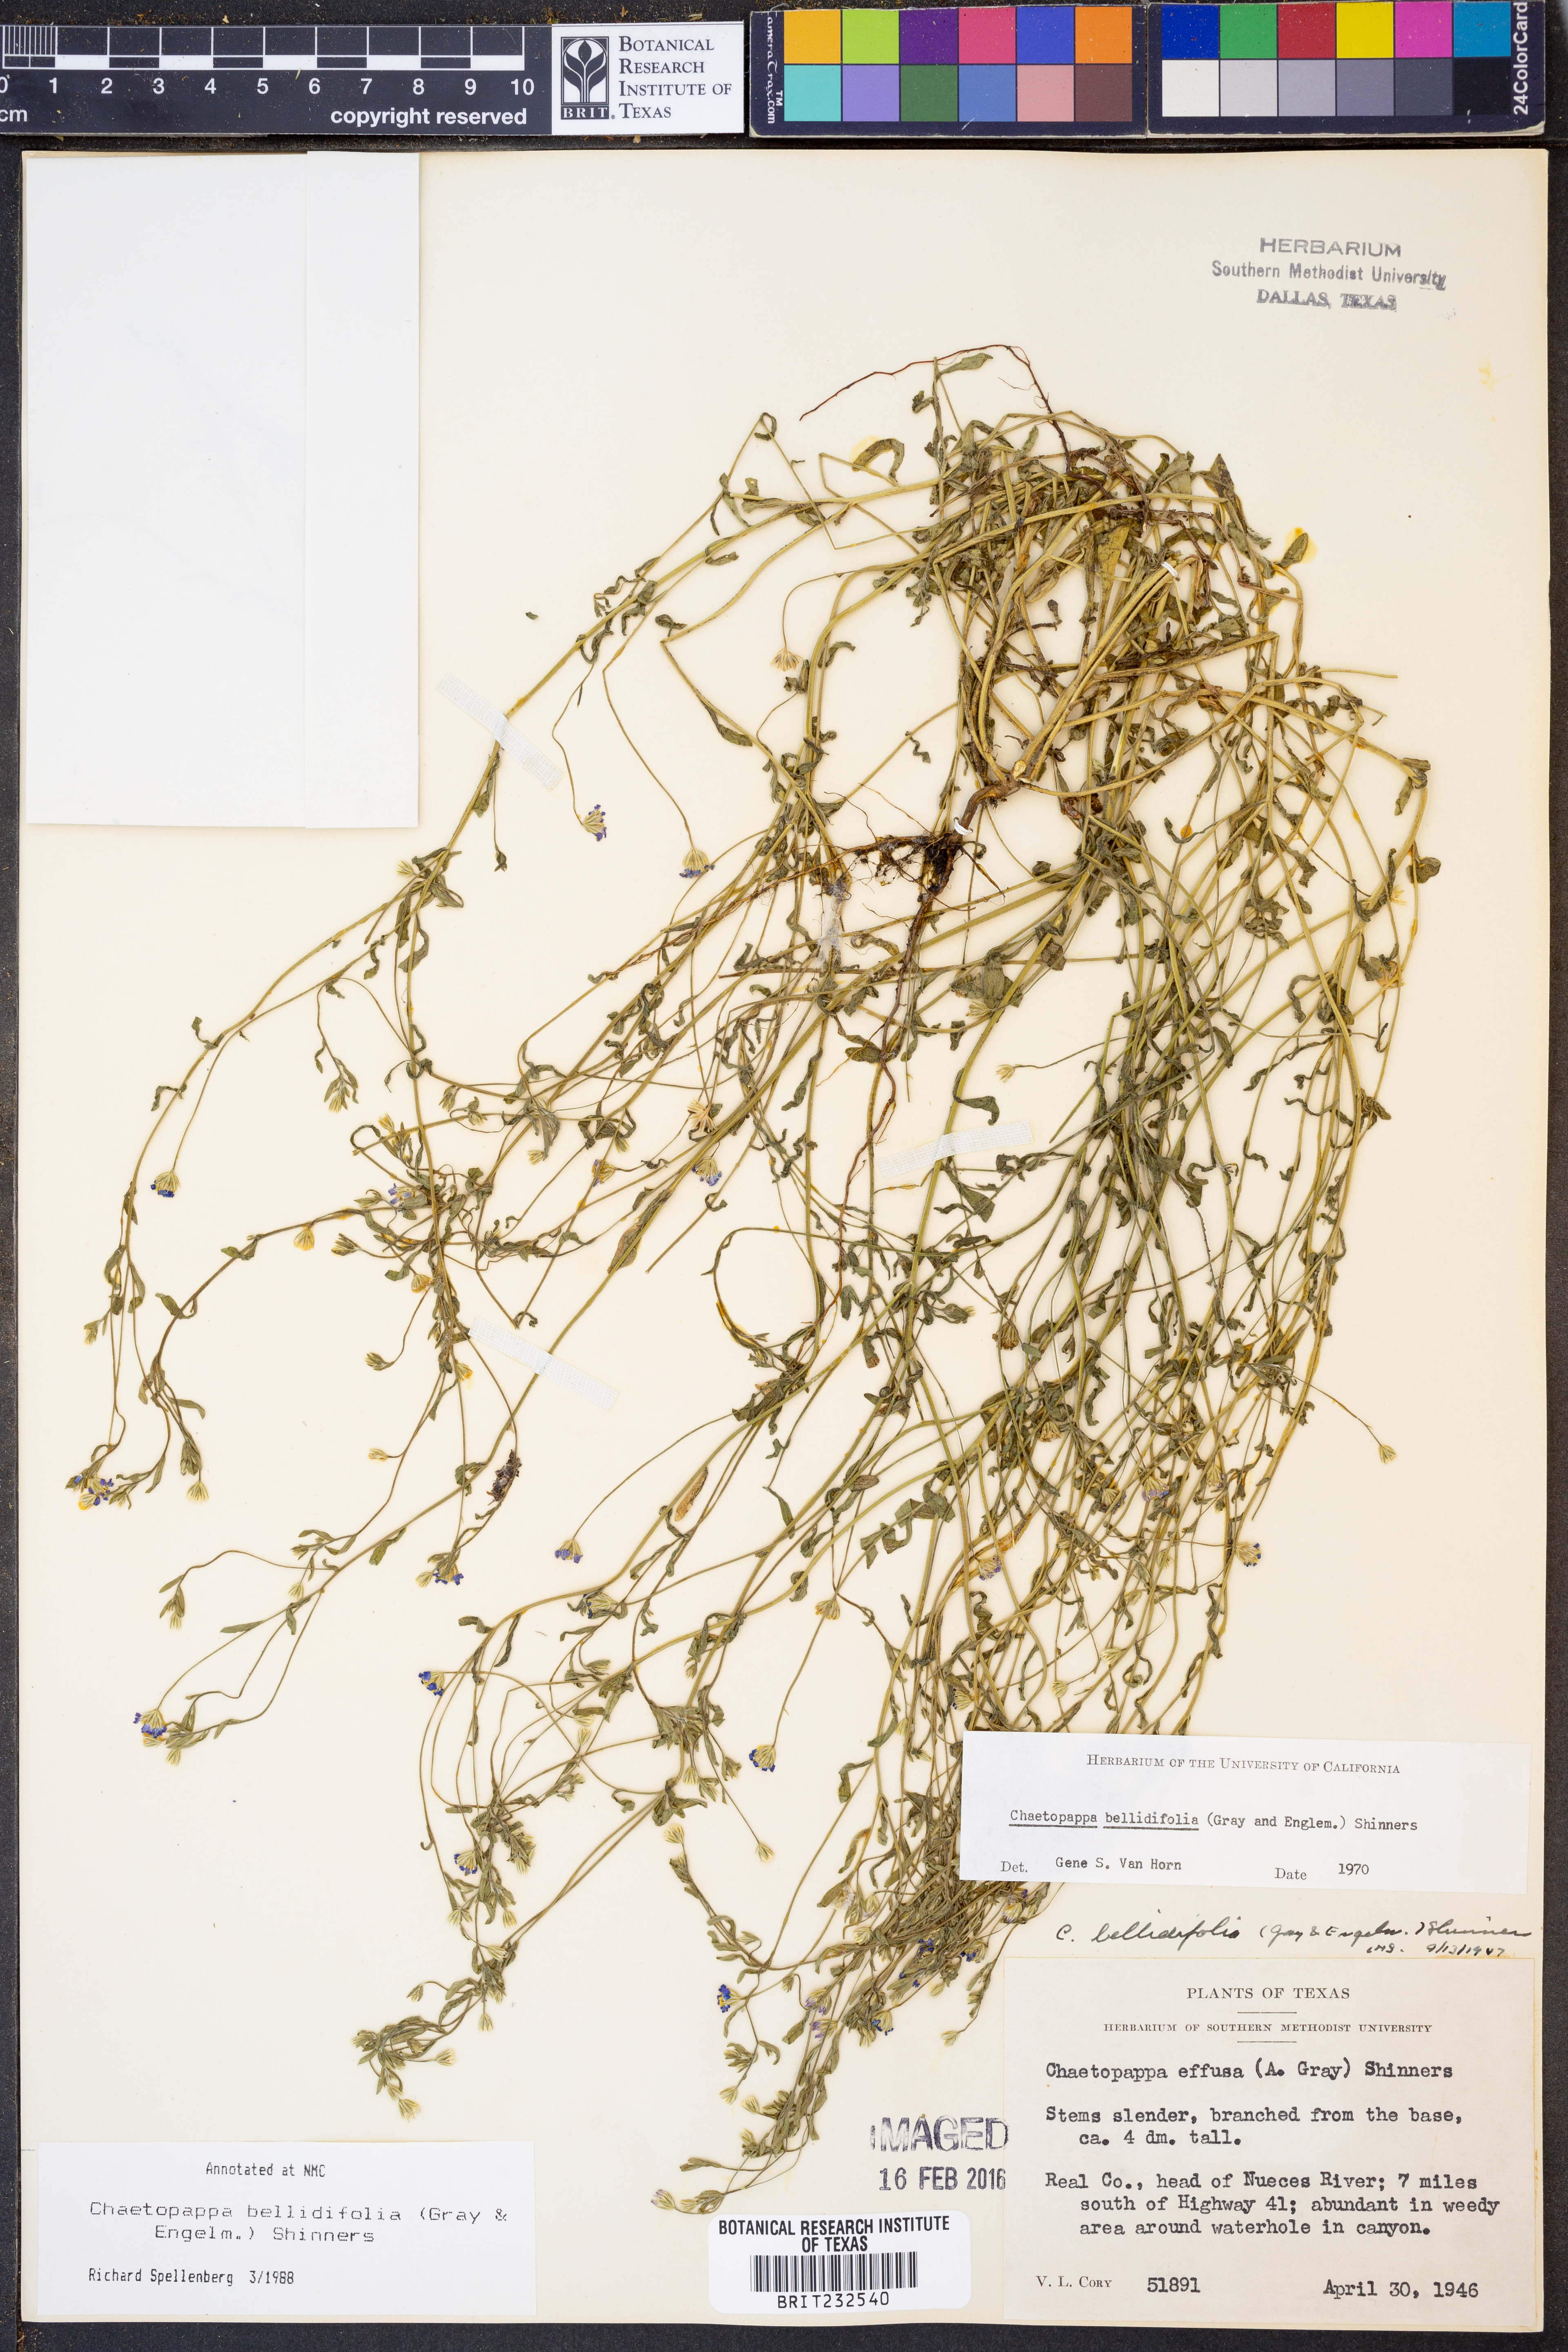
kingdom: Plantae
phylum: Tracheophyta
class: Magnoliopsida
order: Asterales
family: Asteraceae
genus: Chaetopappa
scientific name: Chaetopappa bellidifolia
